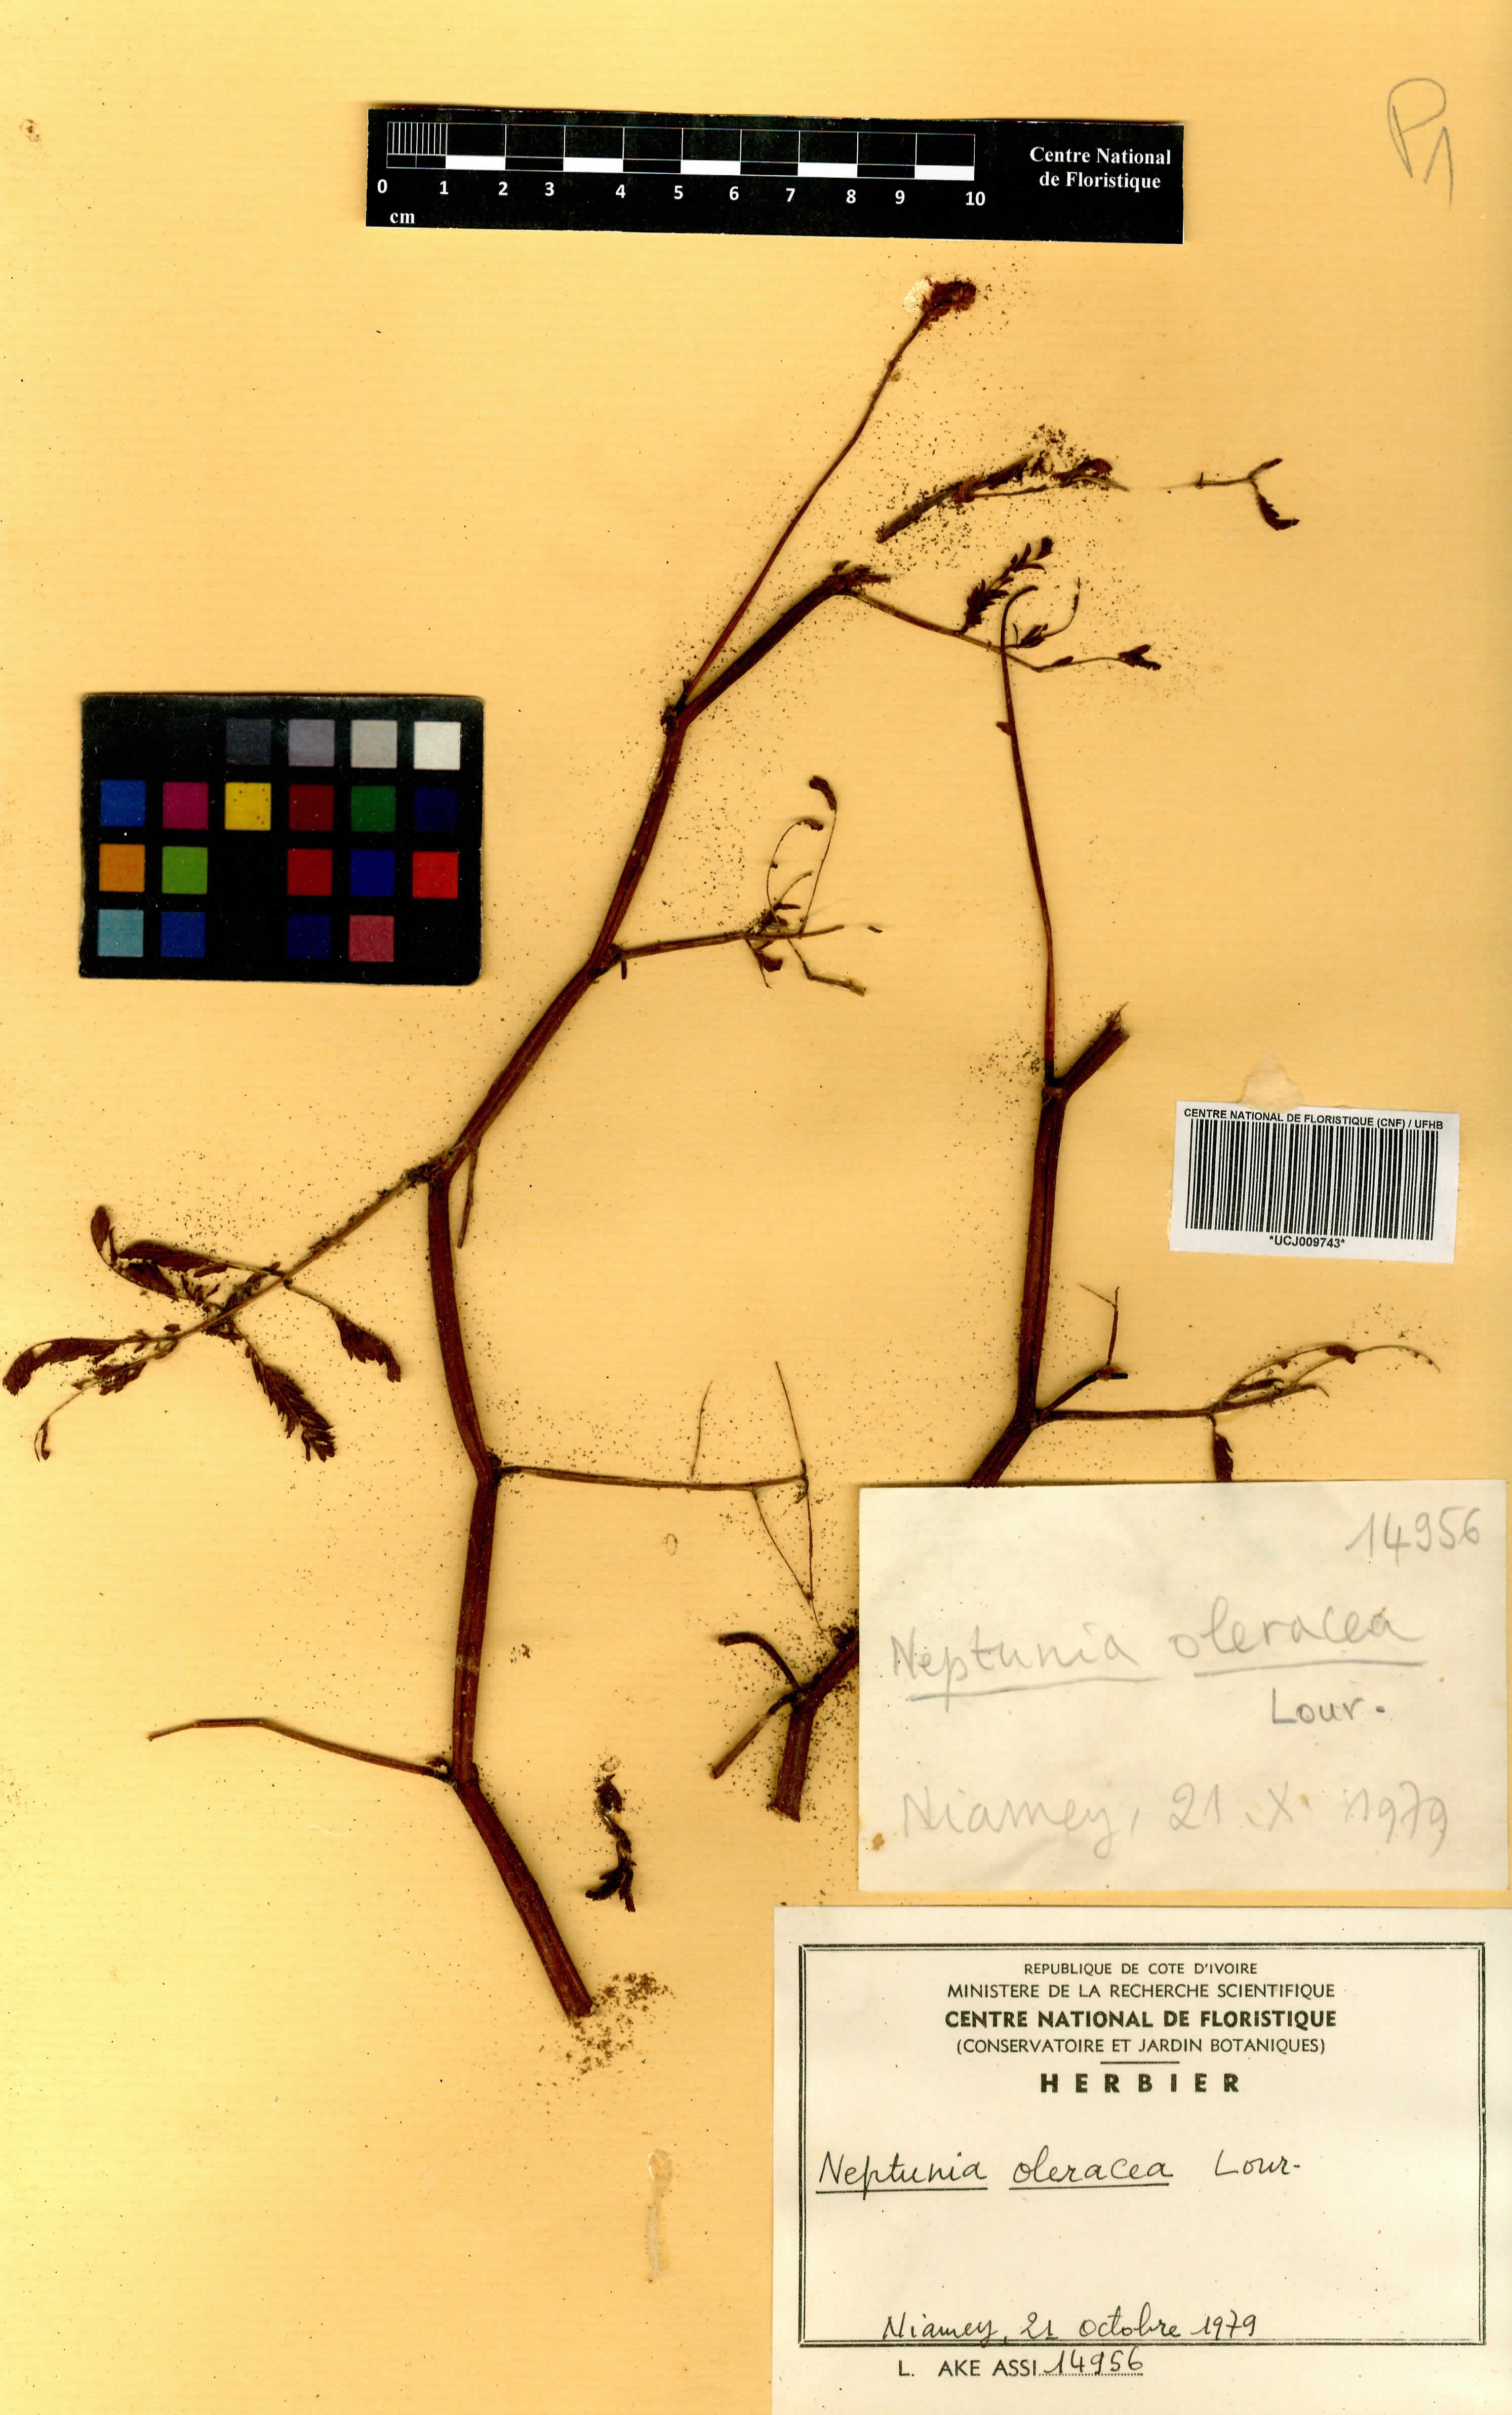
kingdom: Plantae
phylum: Tracheophyta
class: Magnoliopsida
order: Fabales
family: Fabaceae
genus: Neptunia
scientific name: Neptunia prostrata
